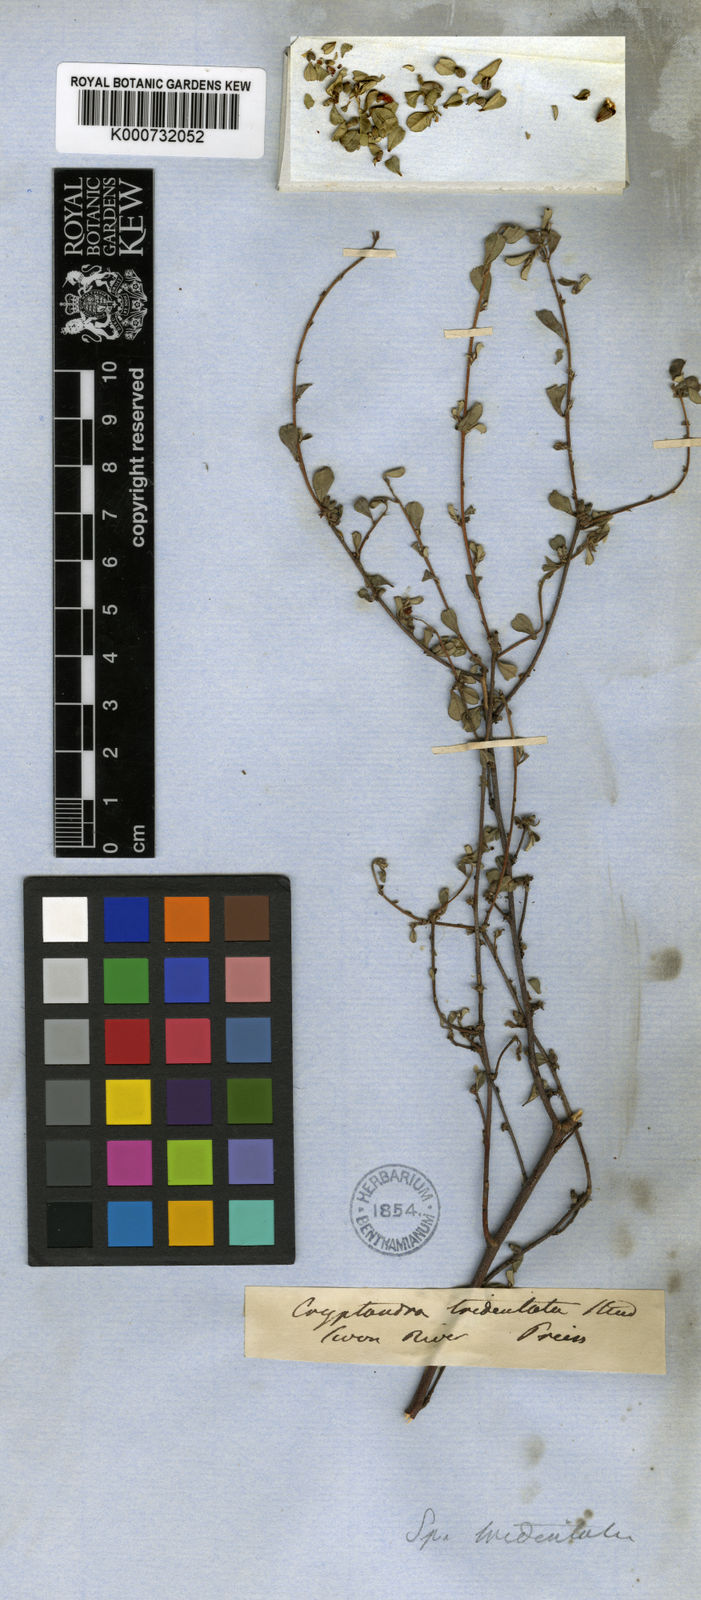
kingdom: Plantae
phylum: Tracheophyta
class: Magnoliopsida
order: Rosales
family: Rhamnaceae
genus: Stenanthemum
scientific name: Stenanthemum tridentatum
